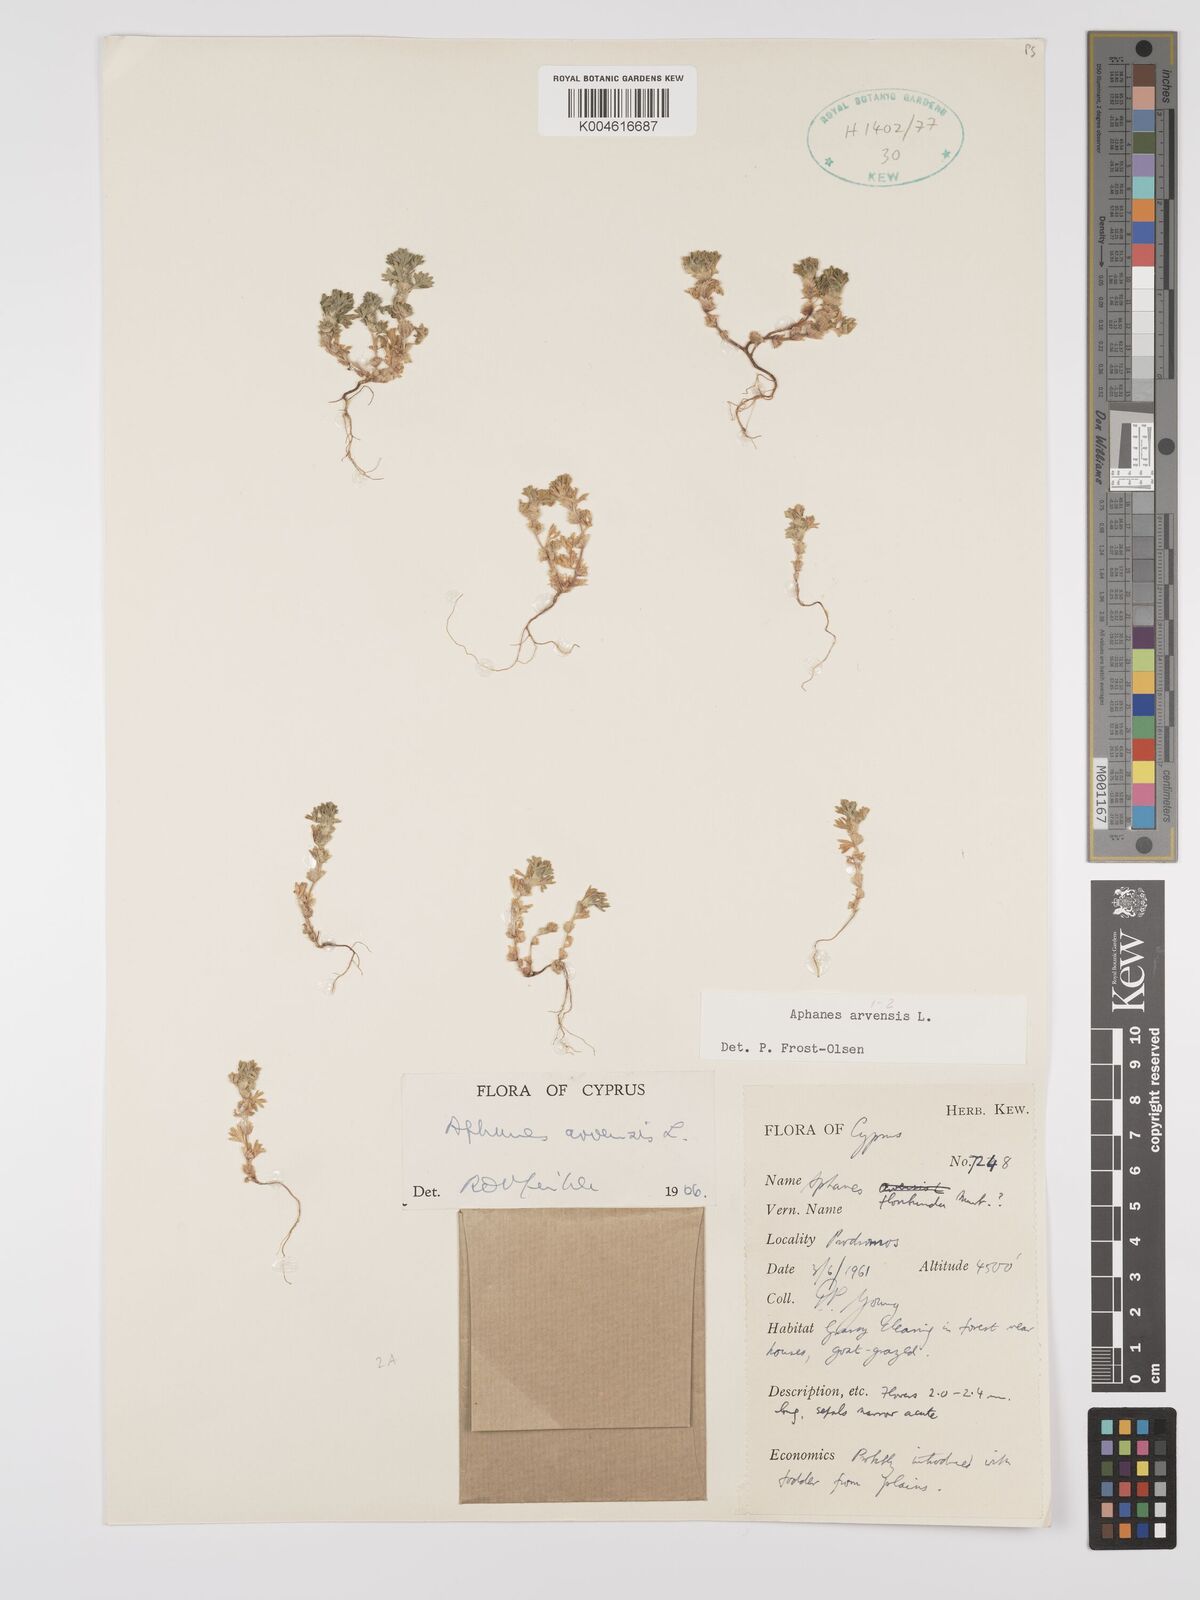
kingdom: Plantae
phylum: Tracheophyta
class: Magnoliopsida
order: Rosales
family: Rosaceae
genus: Aphanes
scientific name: Aphanes arvensis
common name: Parsley-piert
